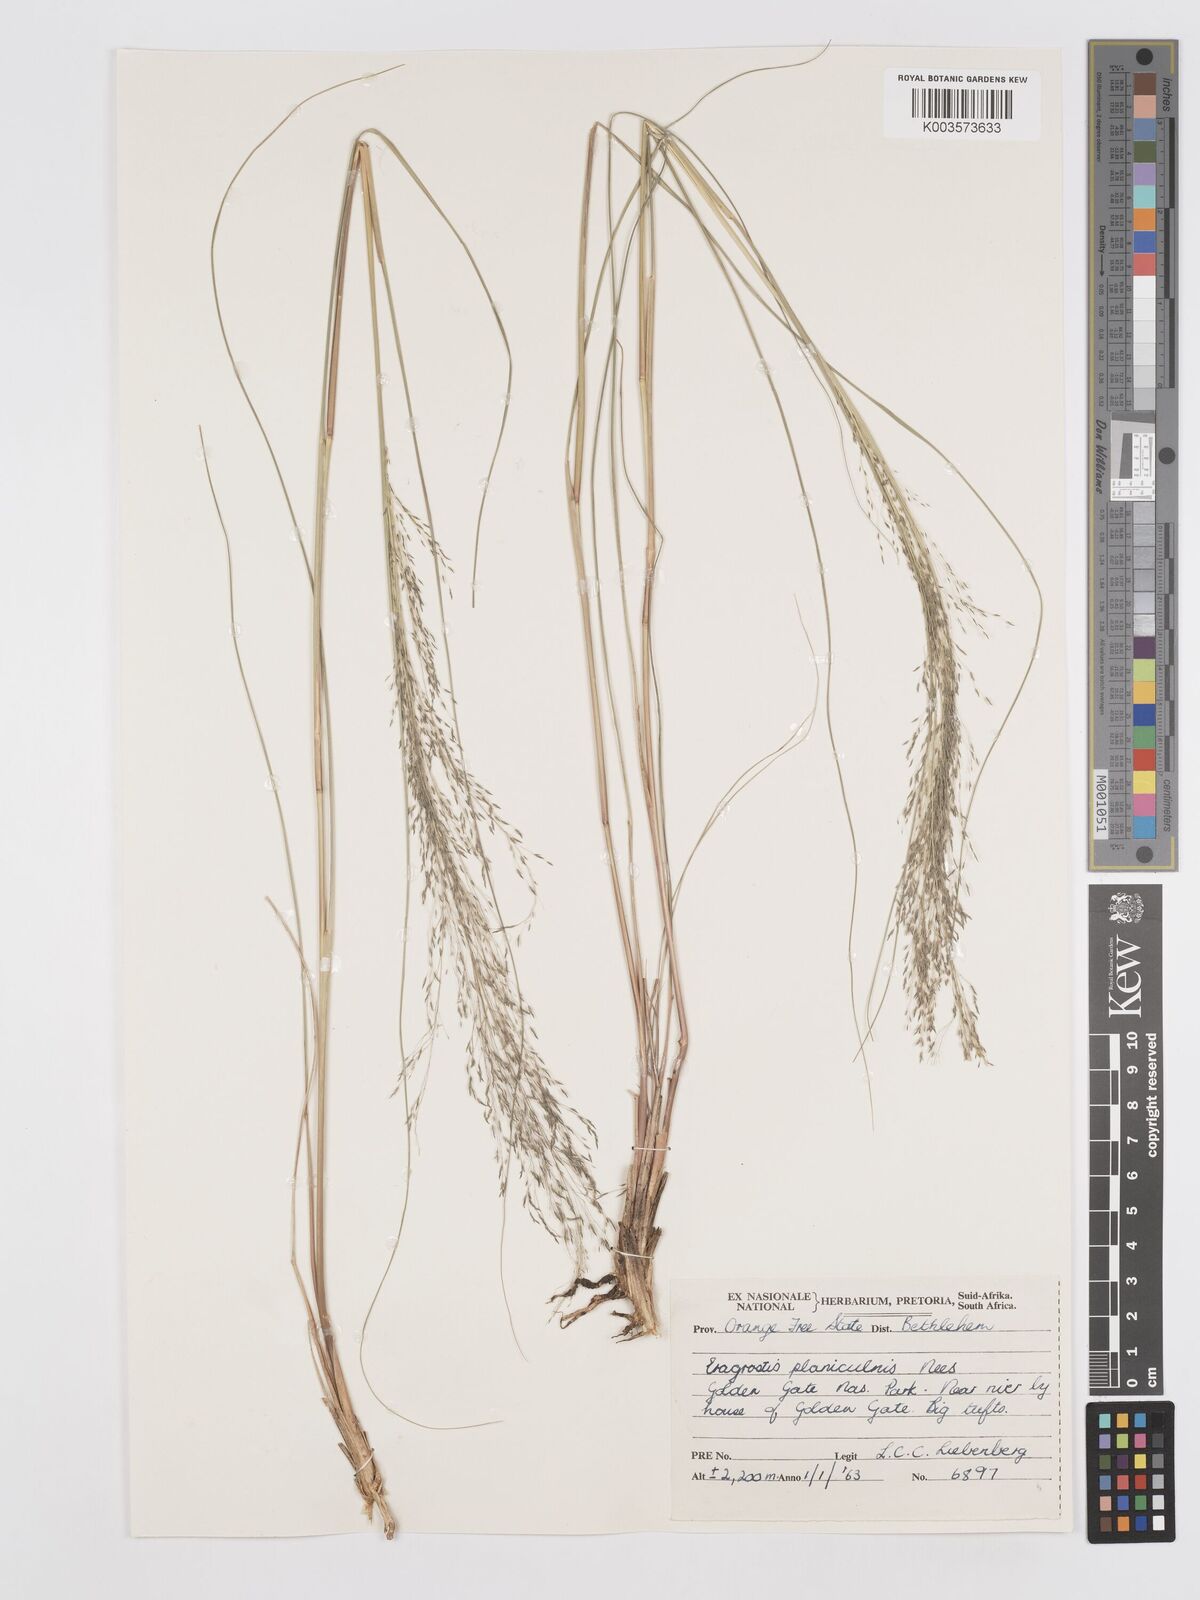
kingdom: Plantae
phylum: Tracheophyta
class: Liliopsida
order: Poales
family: Poaceae
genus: Eragrostis
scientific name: Eragrostis planiculmis
